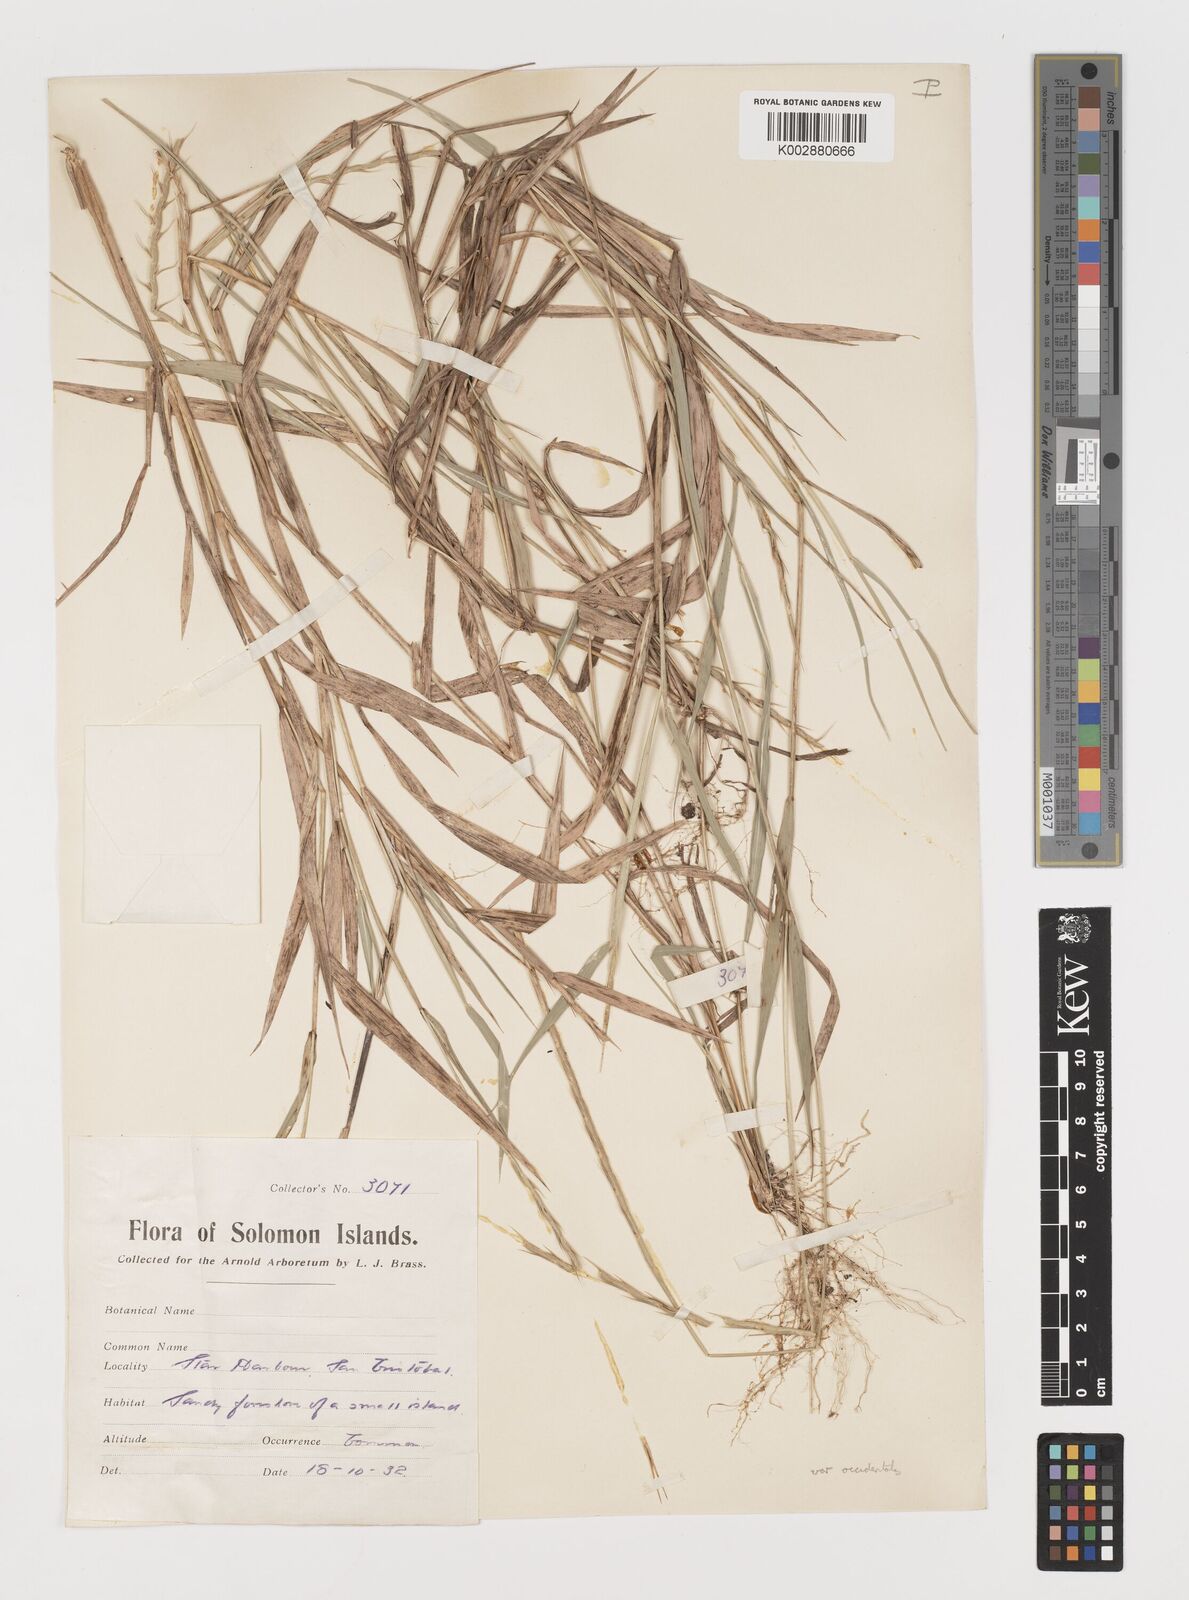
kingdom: Plantae
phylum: Tracheophyta
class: Liliopsida
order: Poales
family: Poaceae
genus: Lepturus
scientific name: Lepturus repens
